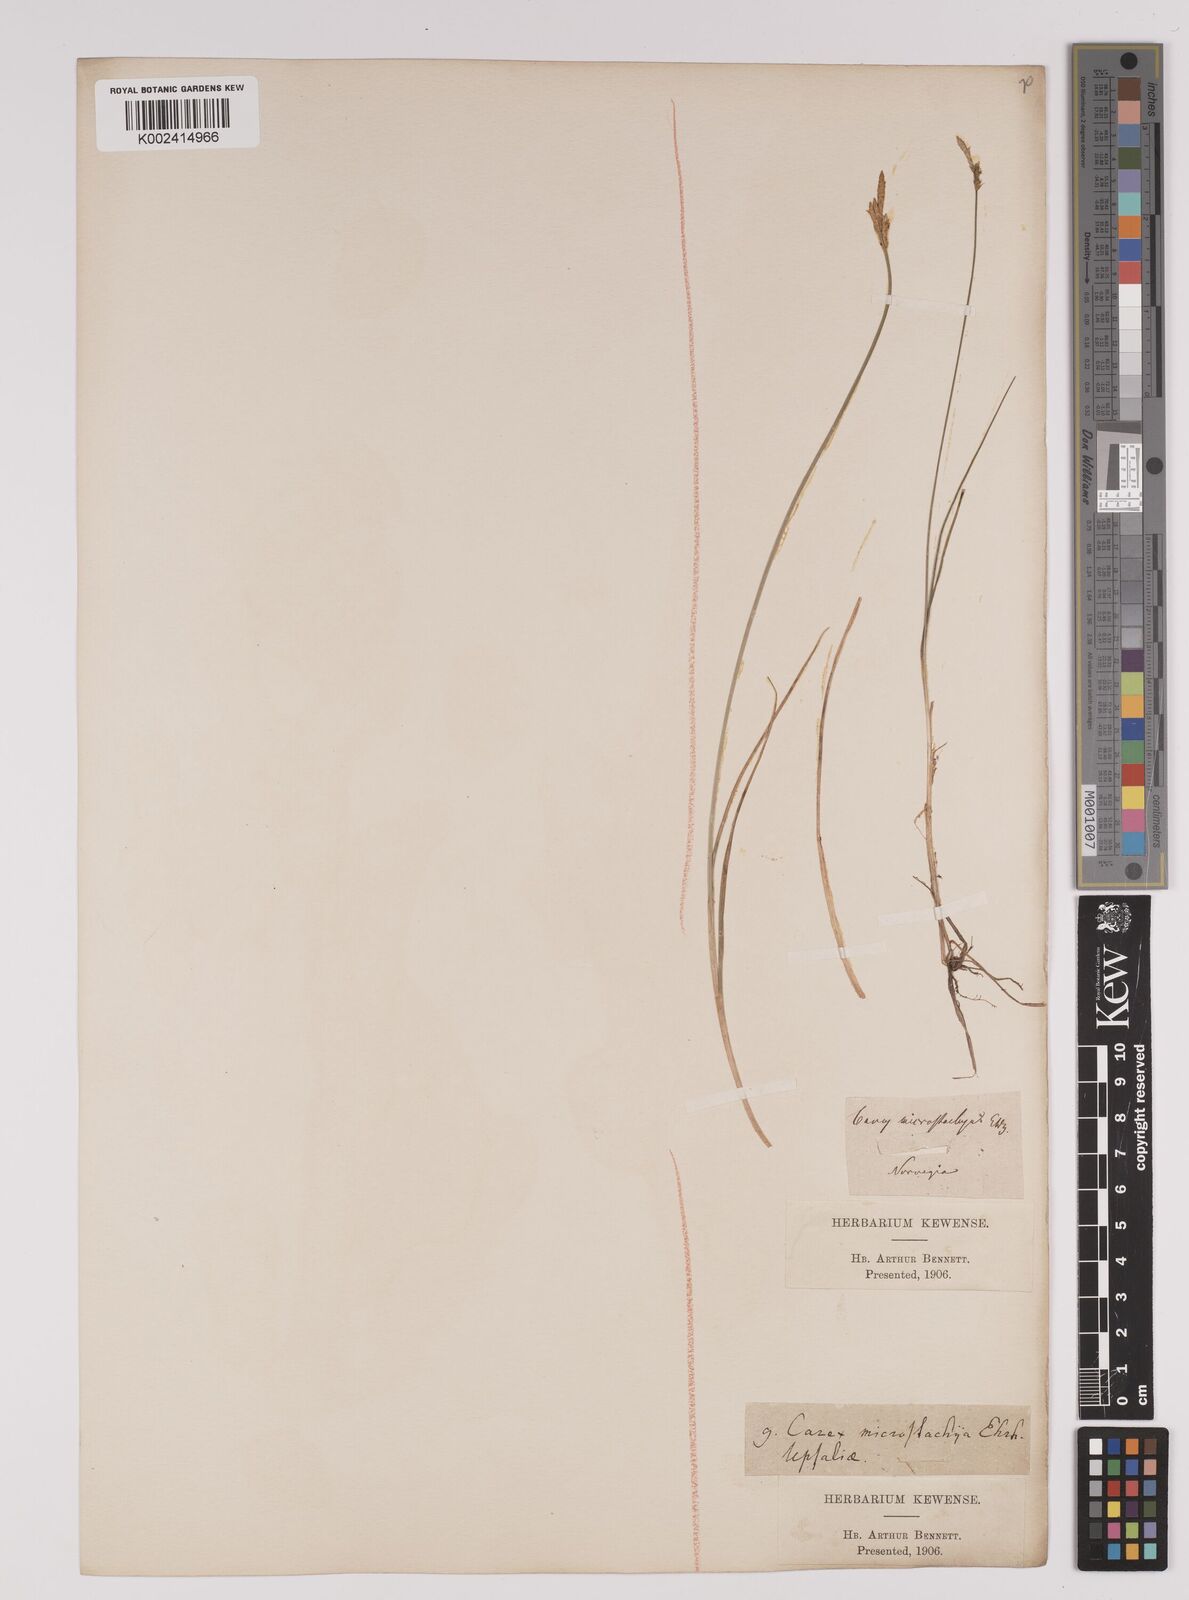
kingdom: Plantae
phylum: Tracheophyta
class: Liliopsida
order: Poales
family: Cyperaceae
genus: Carex
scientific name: Carex dioica
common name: Dioecious sedge
